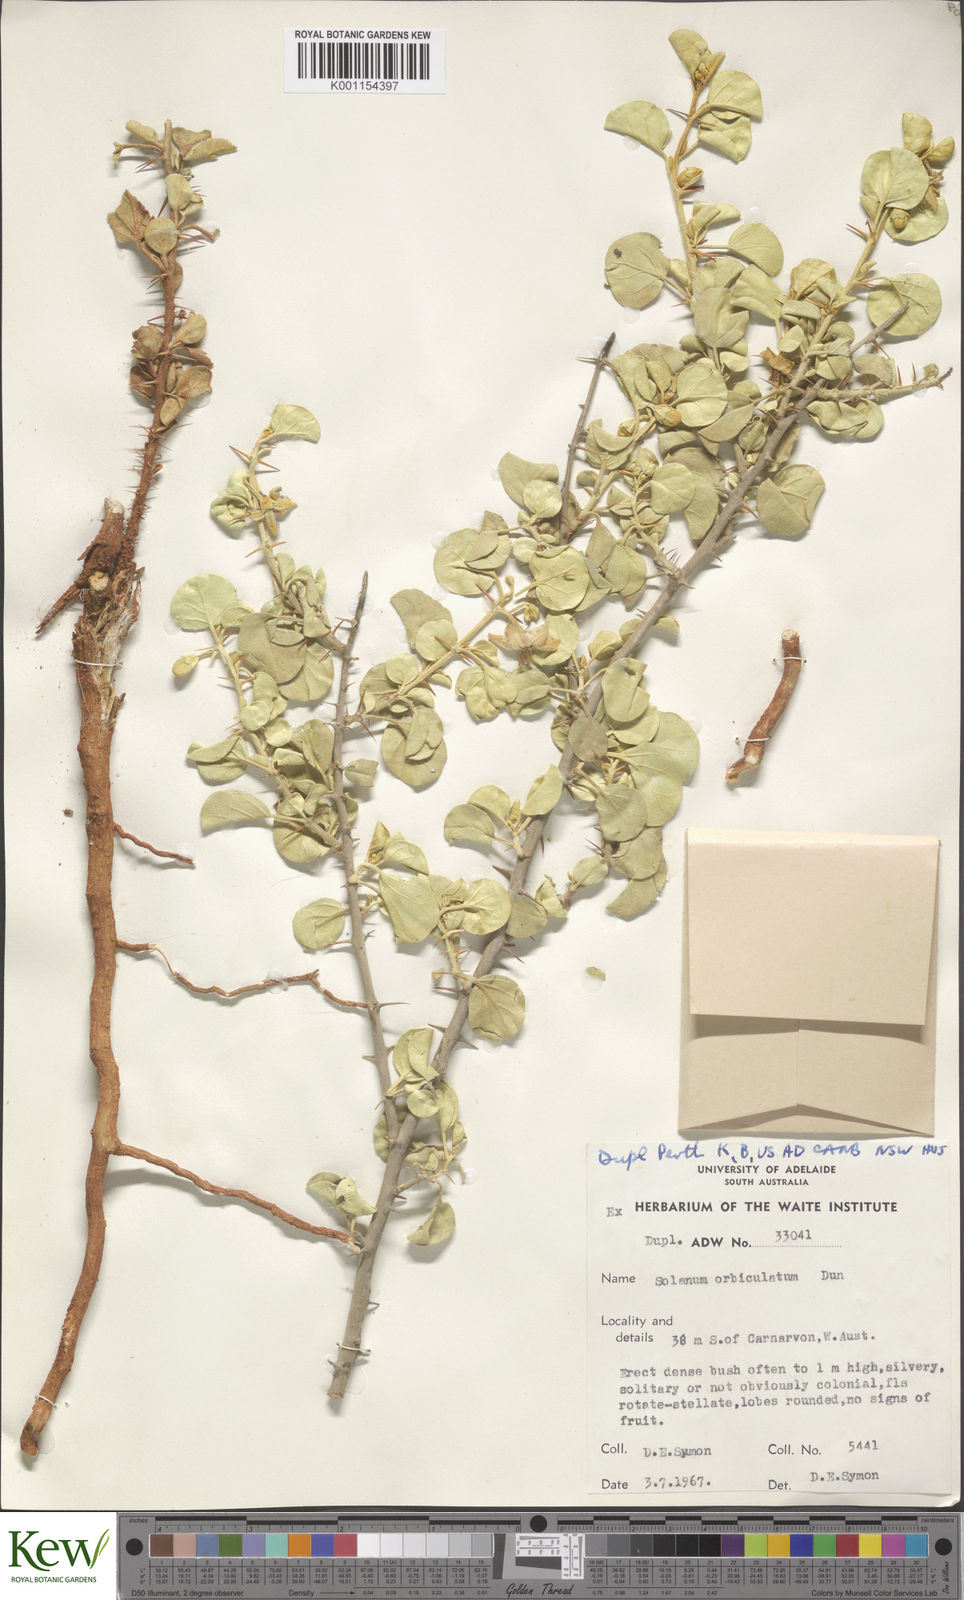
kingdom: Plantae
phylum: Tracheophyta
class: Magnoliopsida
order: Solanales
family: Solanaceae
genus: Solanum
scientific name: Solanum orbiculatum
